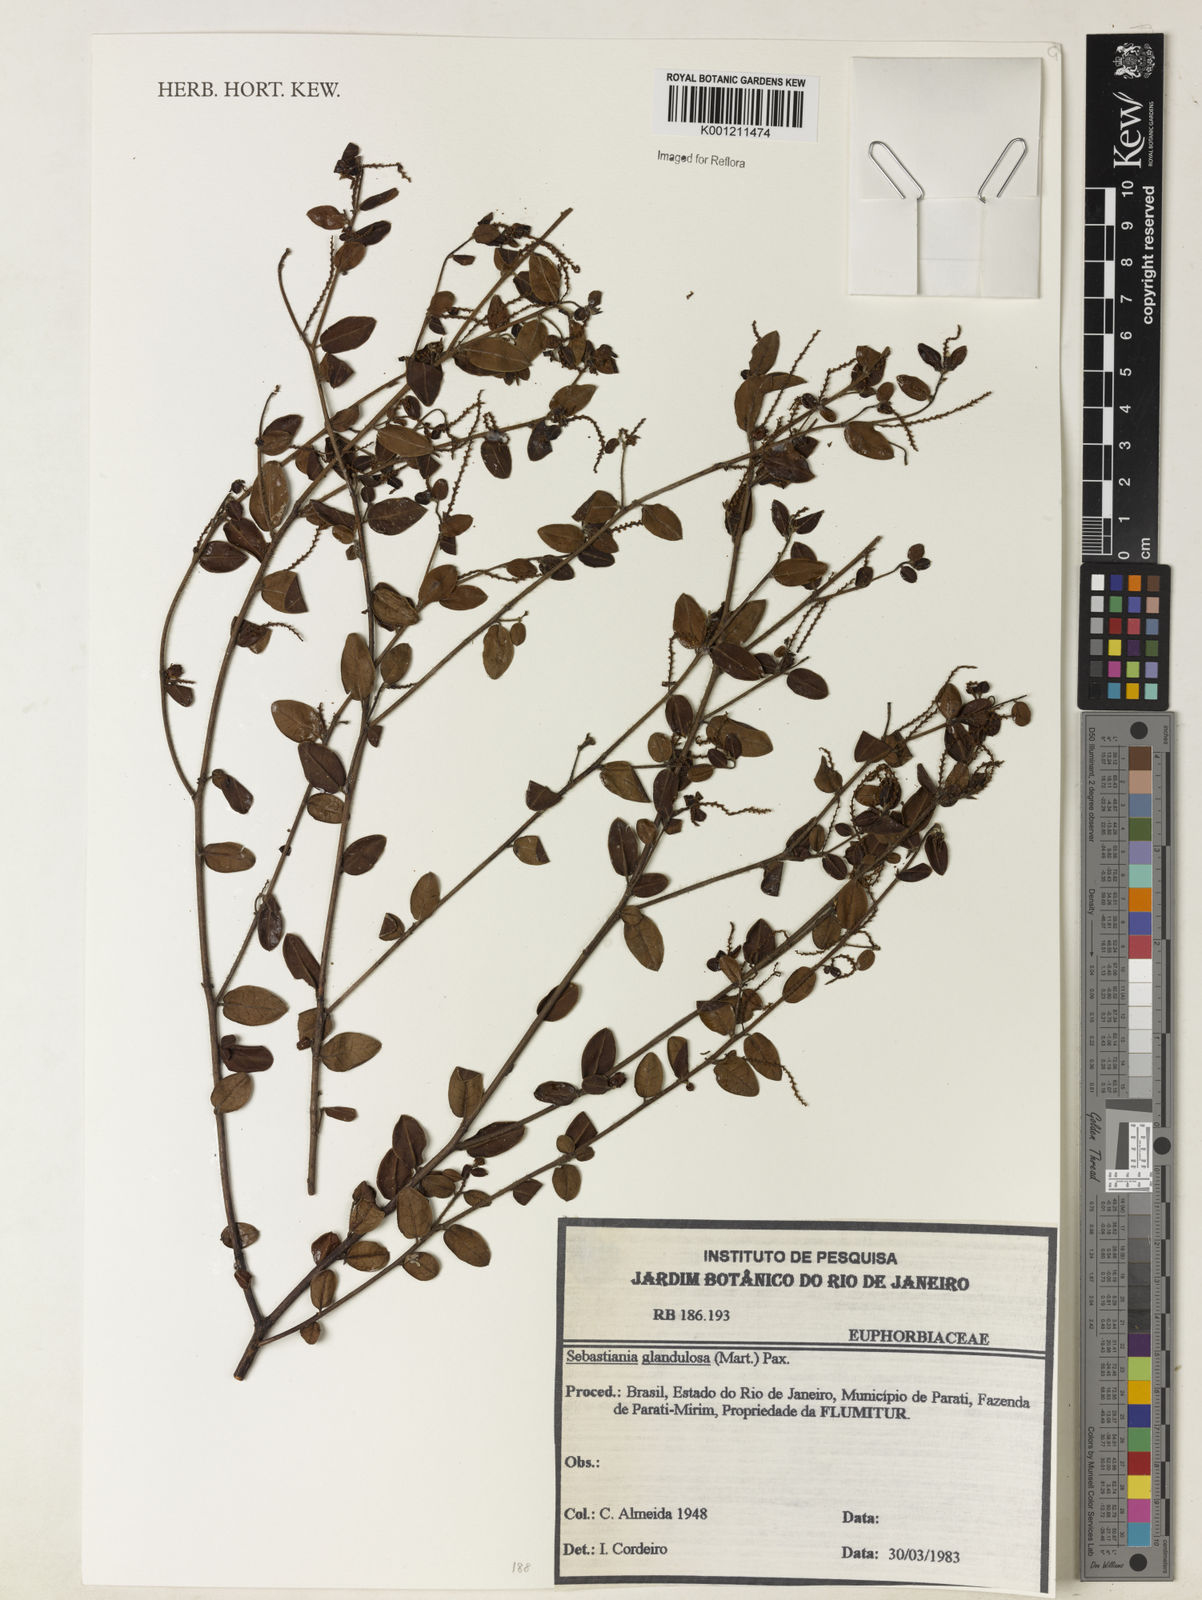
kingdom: Plantae
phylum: Tracheophyta
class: Magnoliopsida
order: Malpighiales
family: Euphorbiaceae
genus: Microstachys
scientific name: Microstachys glandulosa
